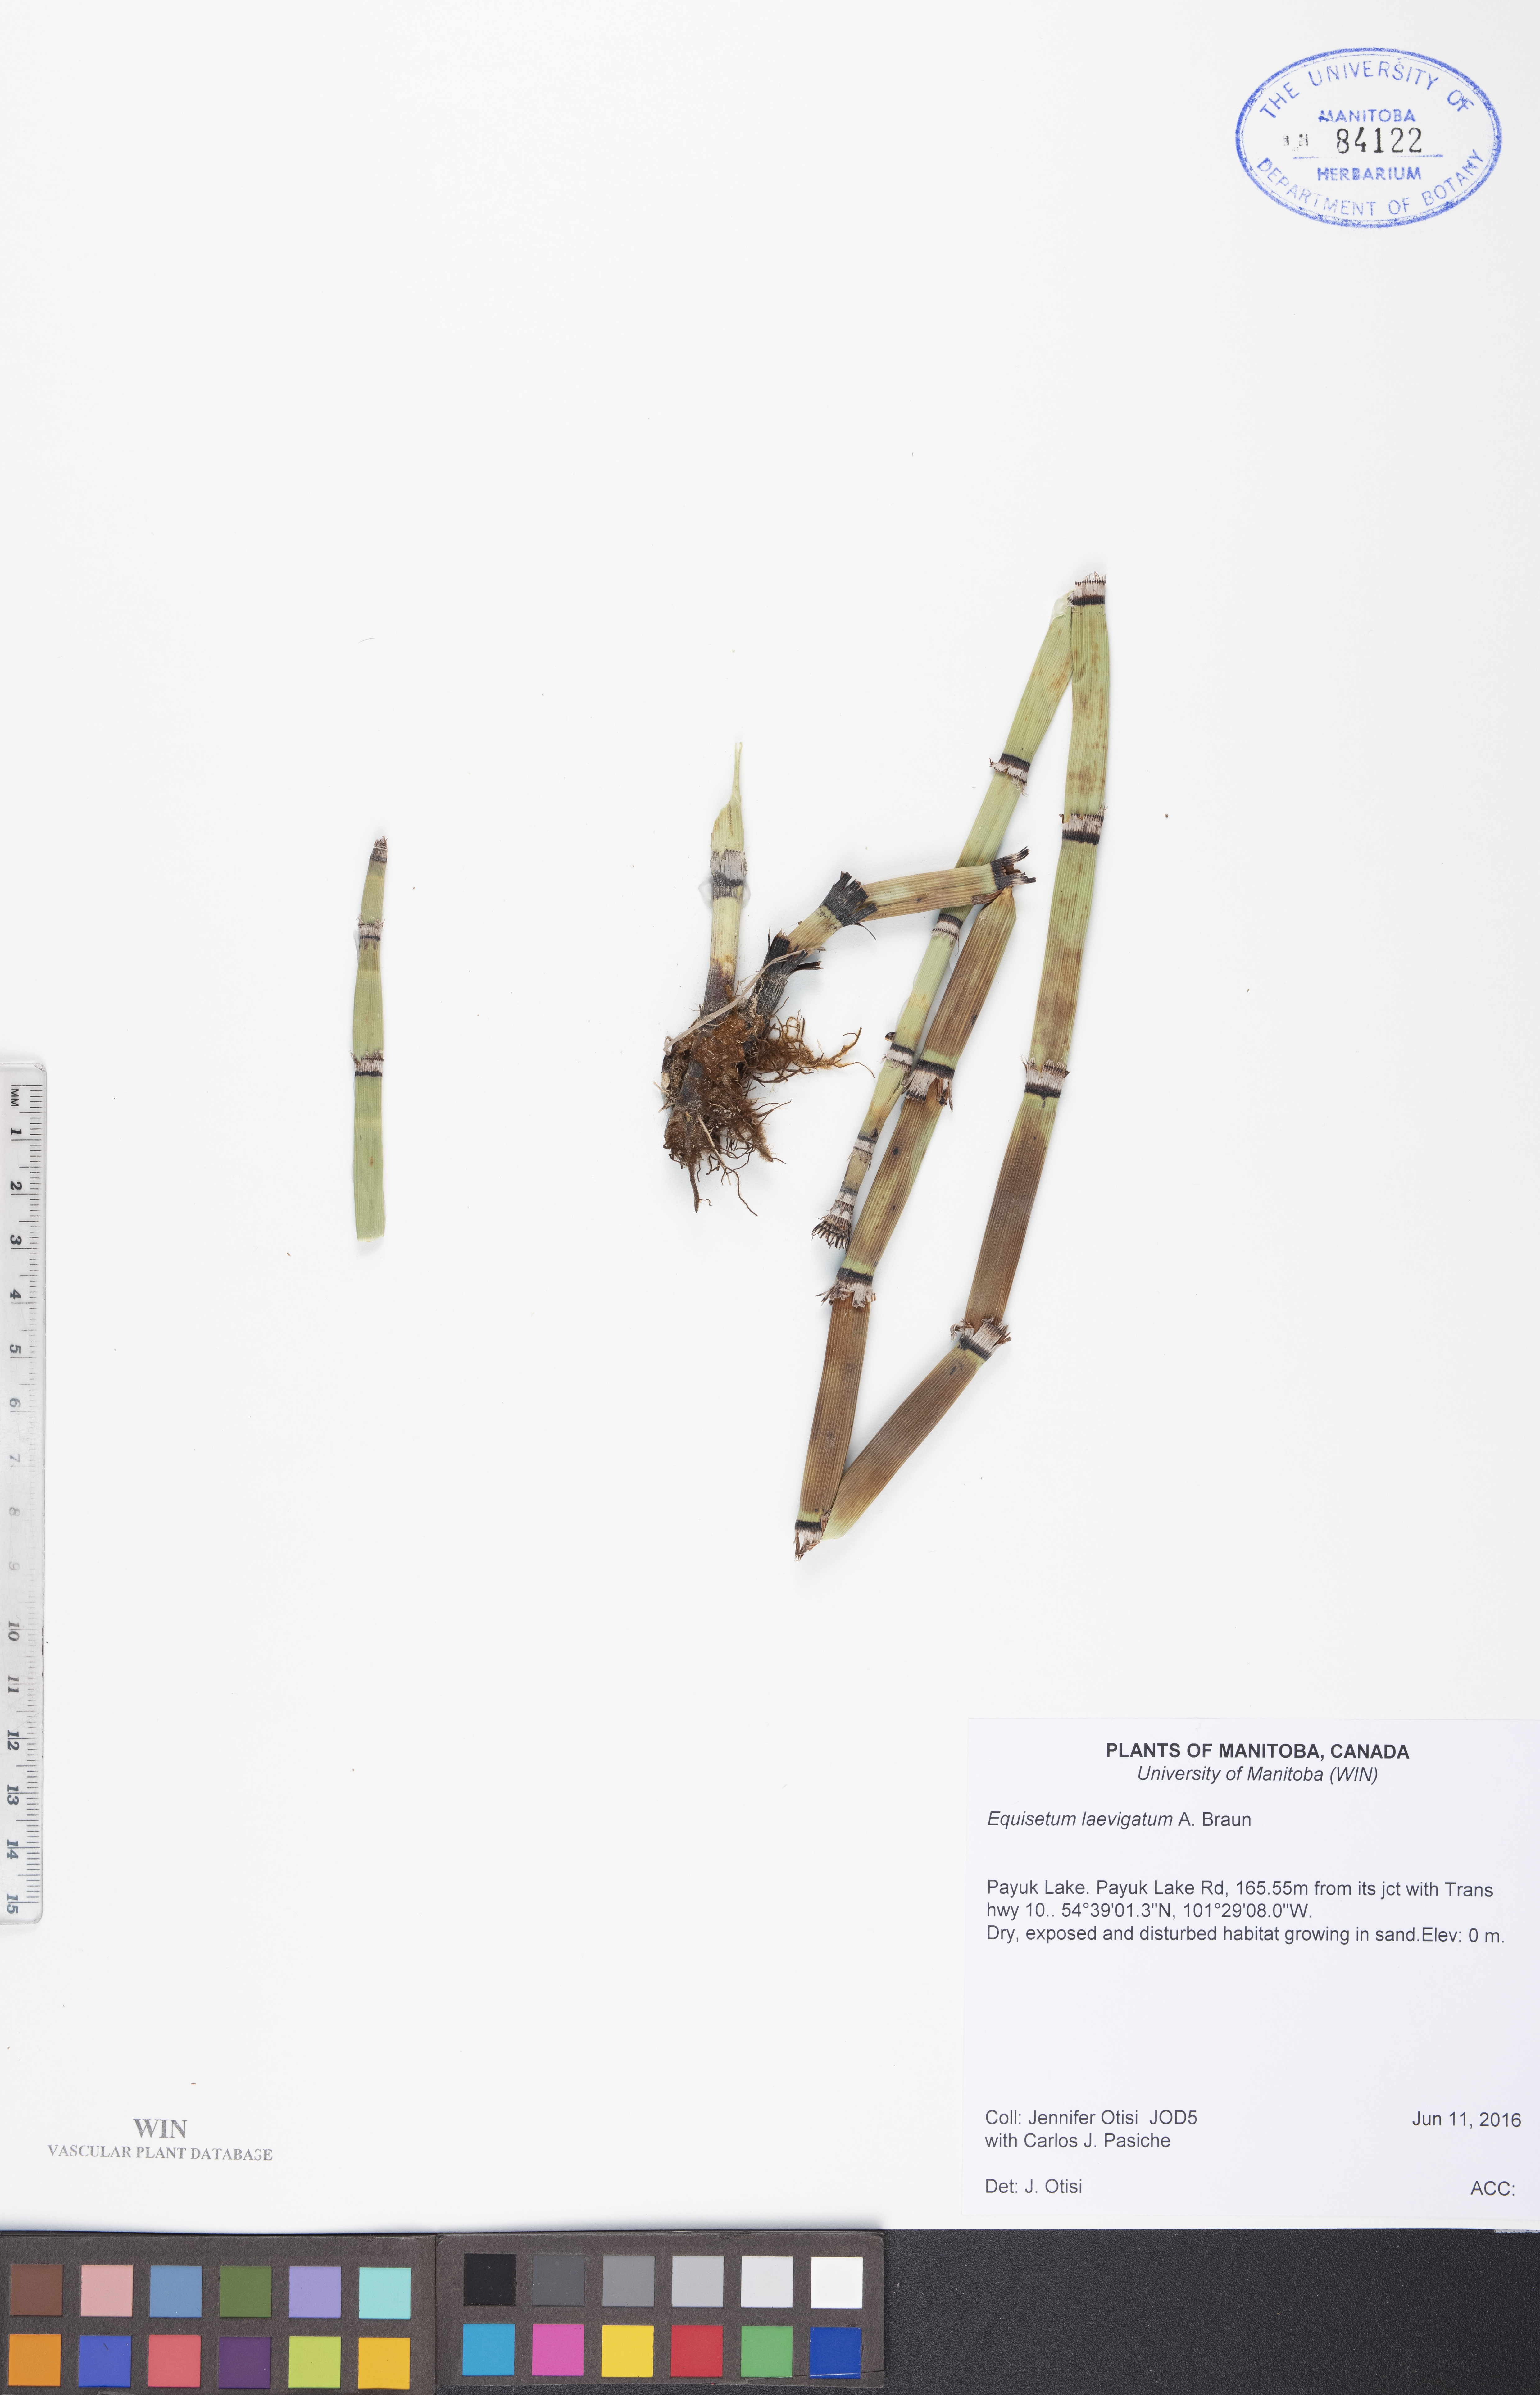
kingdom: Plantae
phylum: Tracheophyta
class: Polypodiopsida
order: Equisetales
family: Equisetaceae
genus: Equisetum
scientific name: Equisetum laevigatum
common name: Smooth scouring-rush
